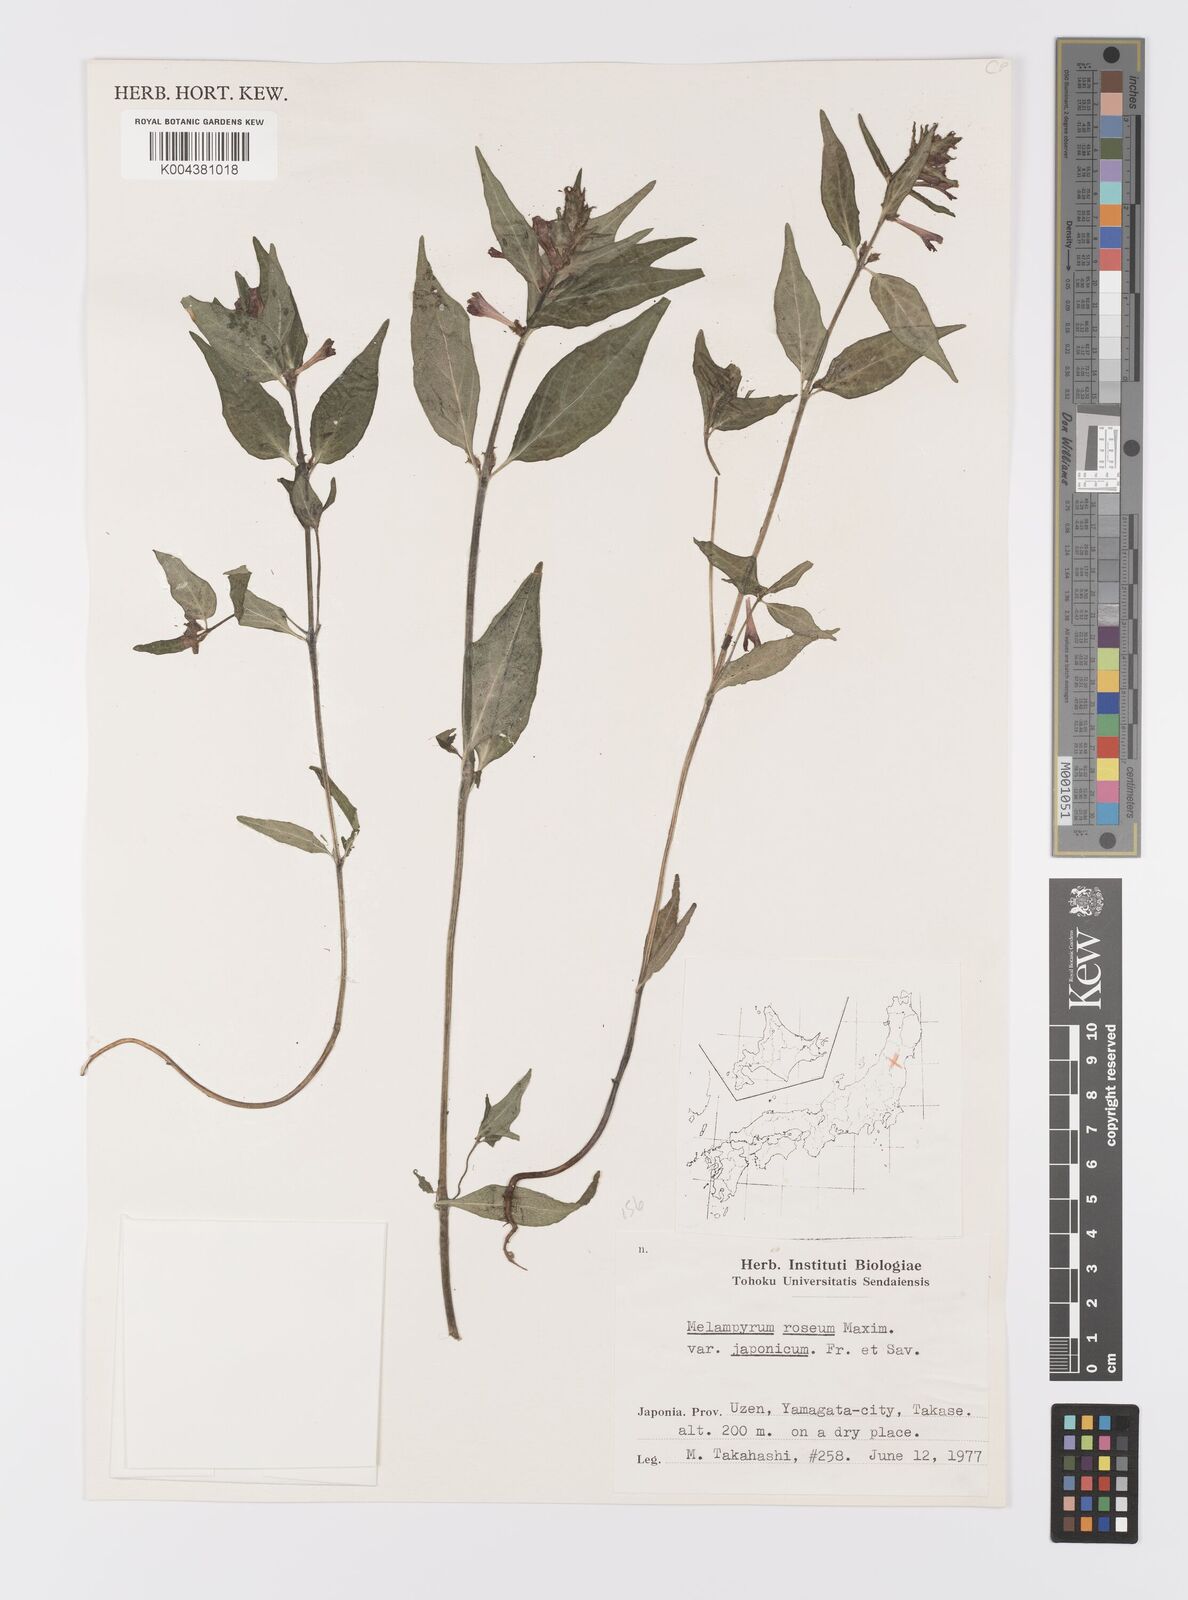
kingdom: Plantae
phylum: Tracheophyta
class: Magnoliopsida
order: Lamiales
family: Orobanchaceae
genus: Melampyrum
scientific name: Melampyrum roseum
